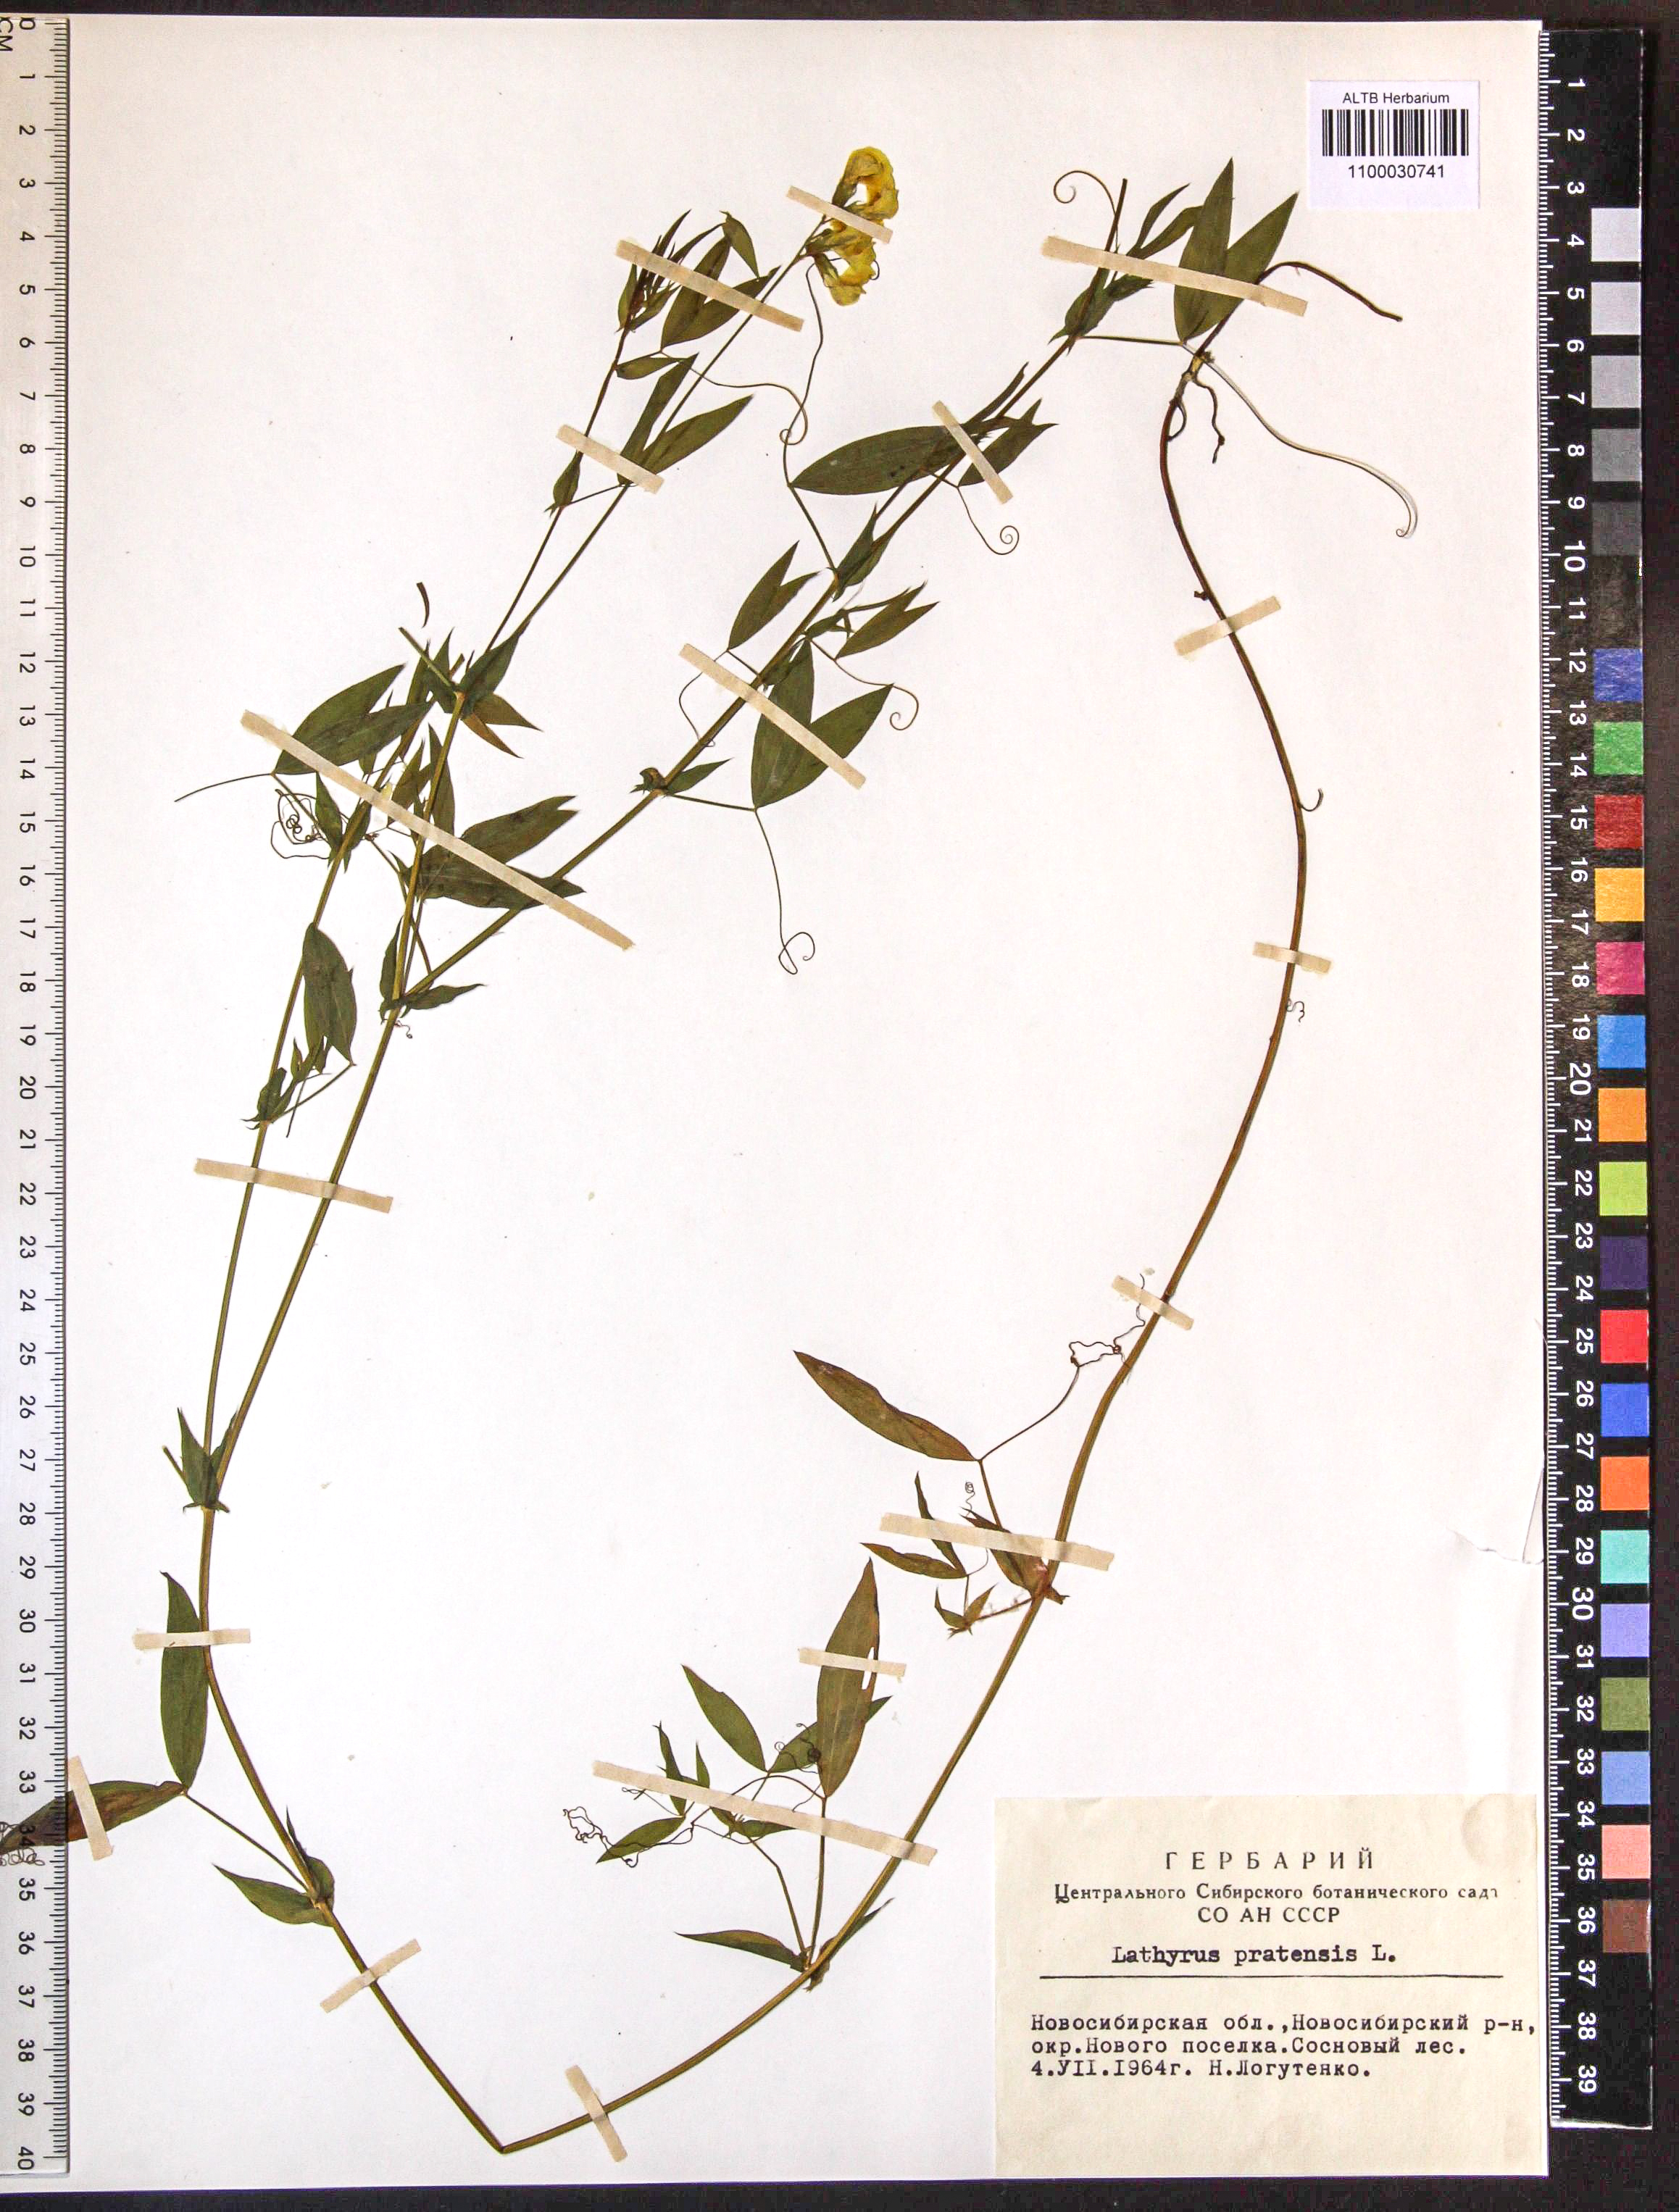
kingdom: Plantae
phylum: Tracheophyta
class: Magnoliopsida
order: Fabales
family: Fabaceae
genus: Lathyrus
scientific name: Lathyrus pratensis
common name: Meadow vetchling
